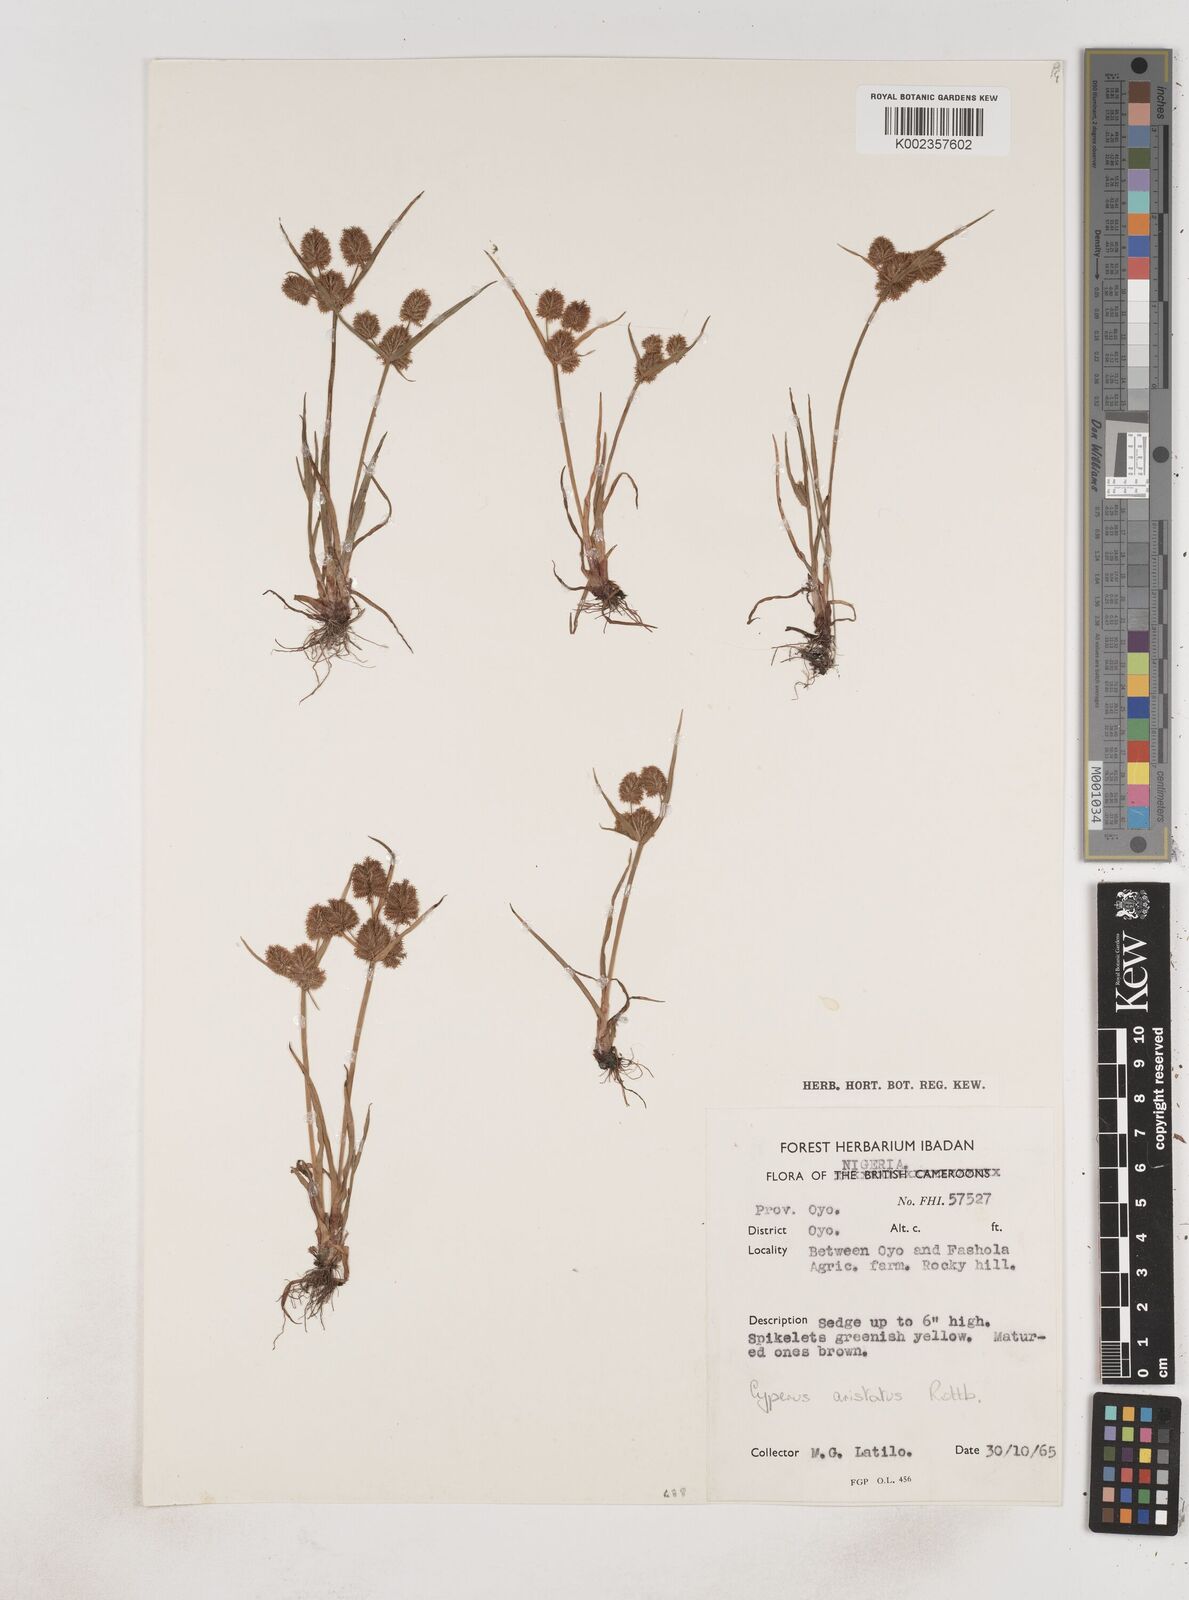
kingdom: Plantae
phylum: Tracheophyta
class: Liliopsida
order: Poales
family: Cyperaceae
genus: Cyperus
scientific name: Cyperus squarrosus
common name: Awned cyperus
